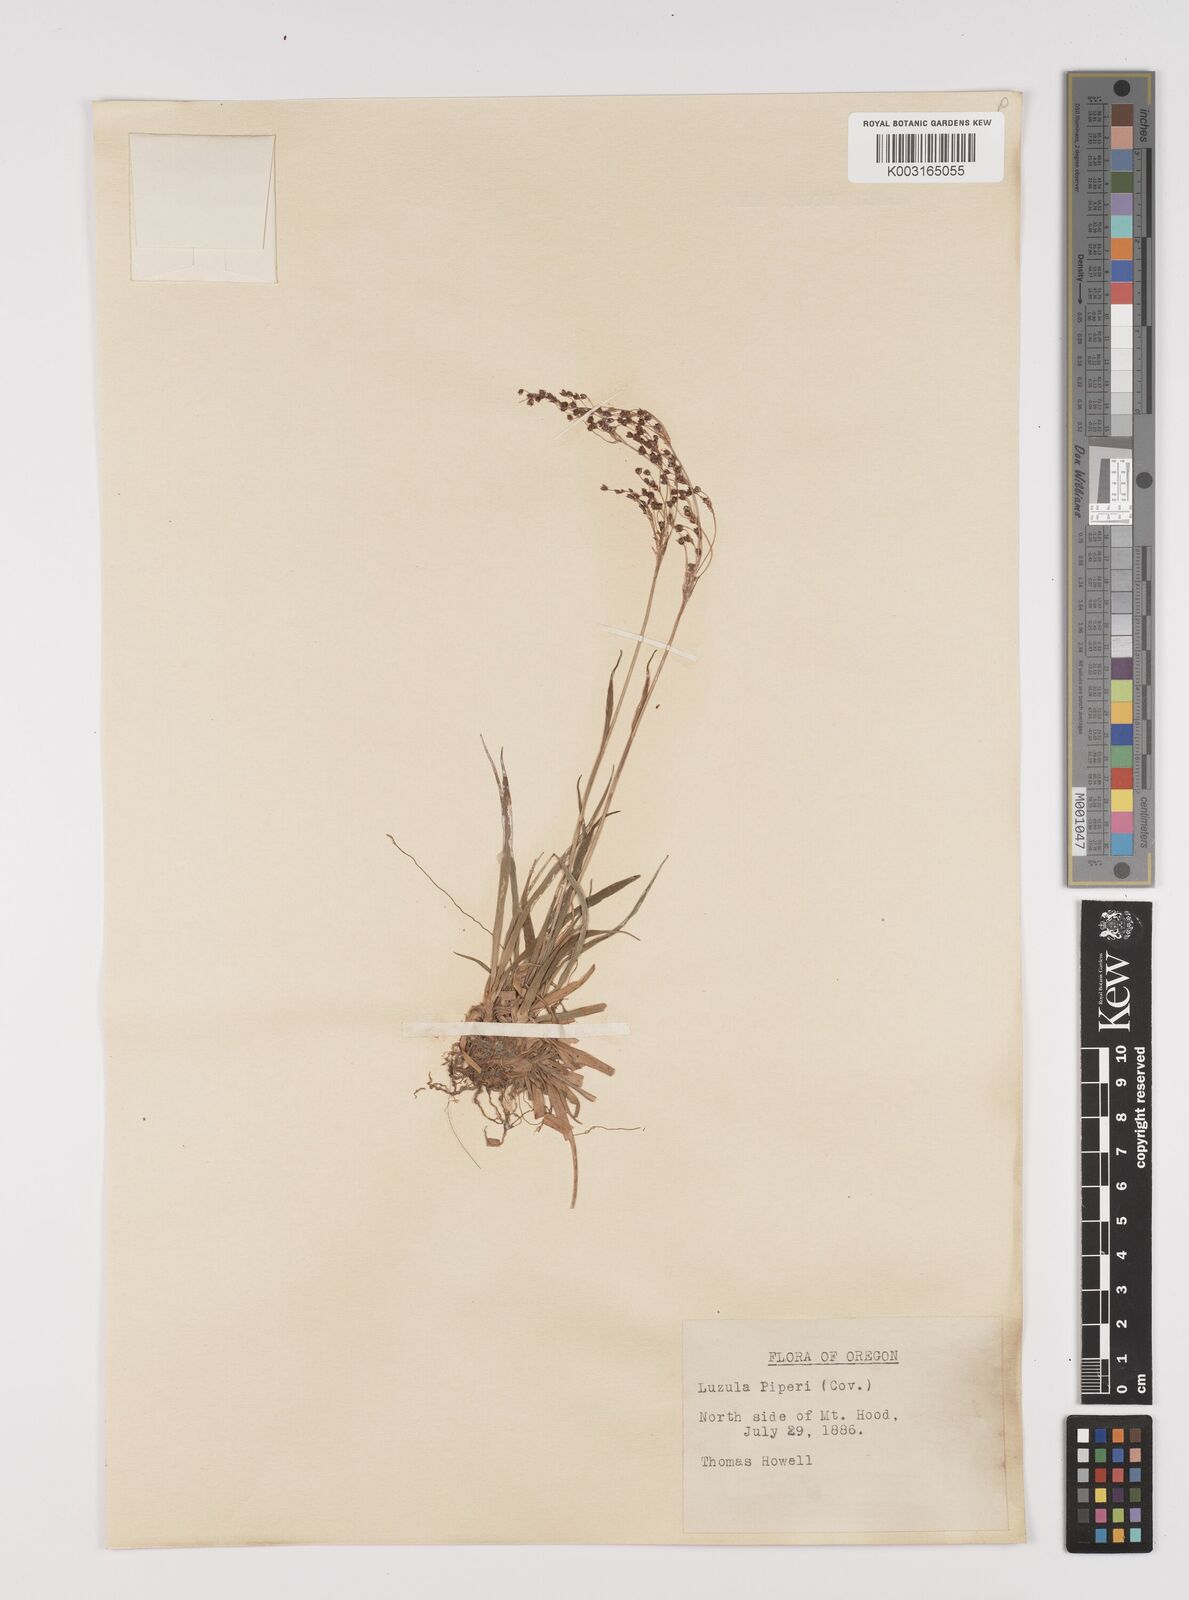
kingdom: Plantae
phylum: Tracheophyta
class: Liliopsida
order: Poales
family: Juncaceae
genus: Luzula
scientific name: Luzula piperi
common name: Piper's wood-rush
